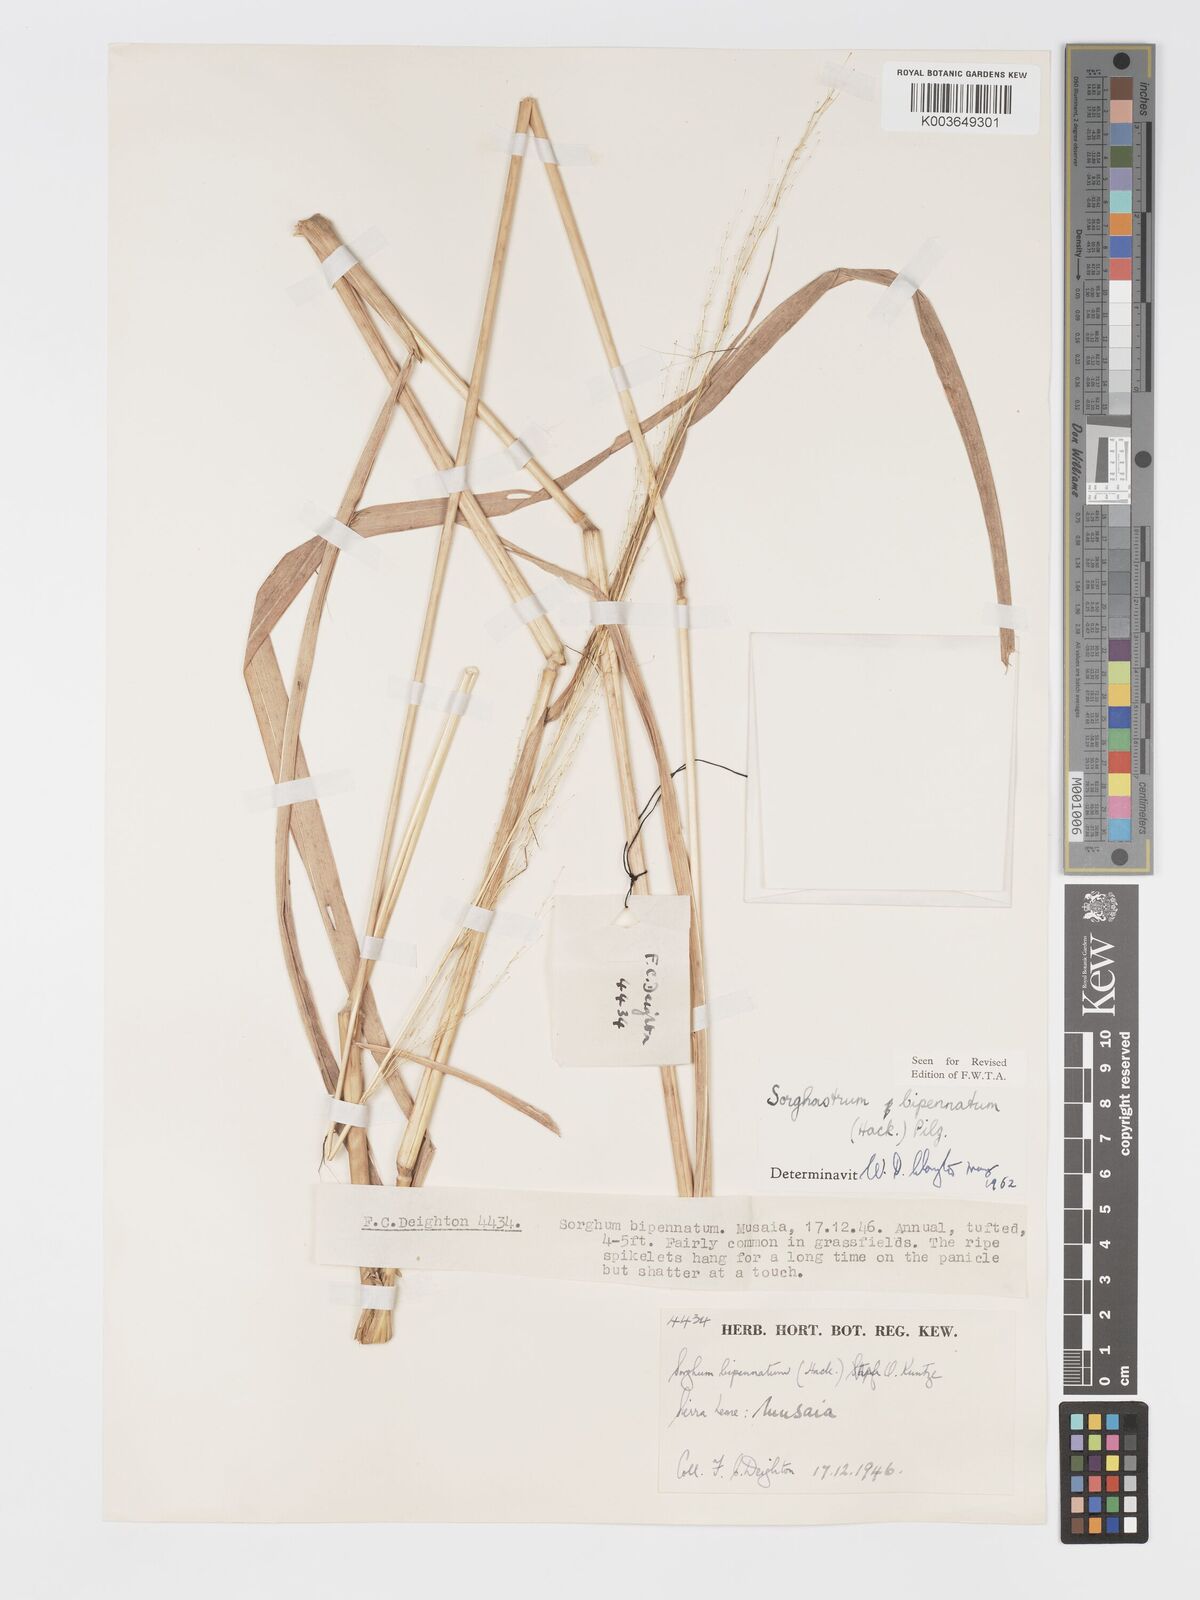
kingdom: Plantae
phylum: Tracheophyta
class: Liliopsida
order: Poales
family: Poaceae
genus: Sorghastrum
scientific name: Sorghastrum incompletum
